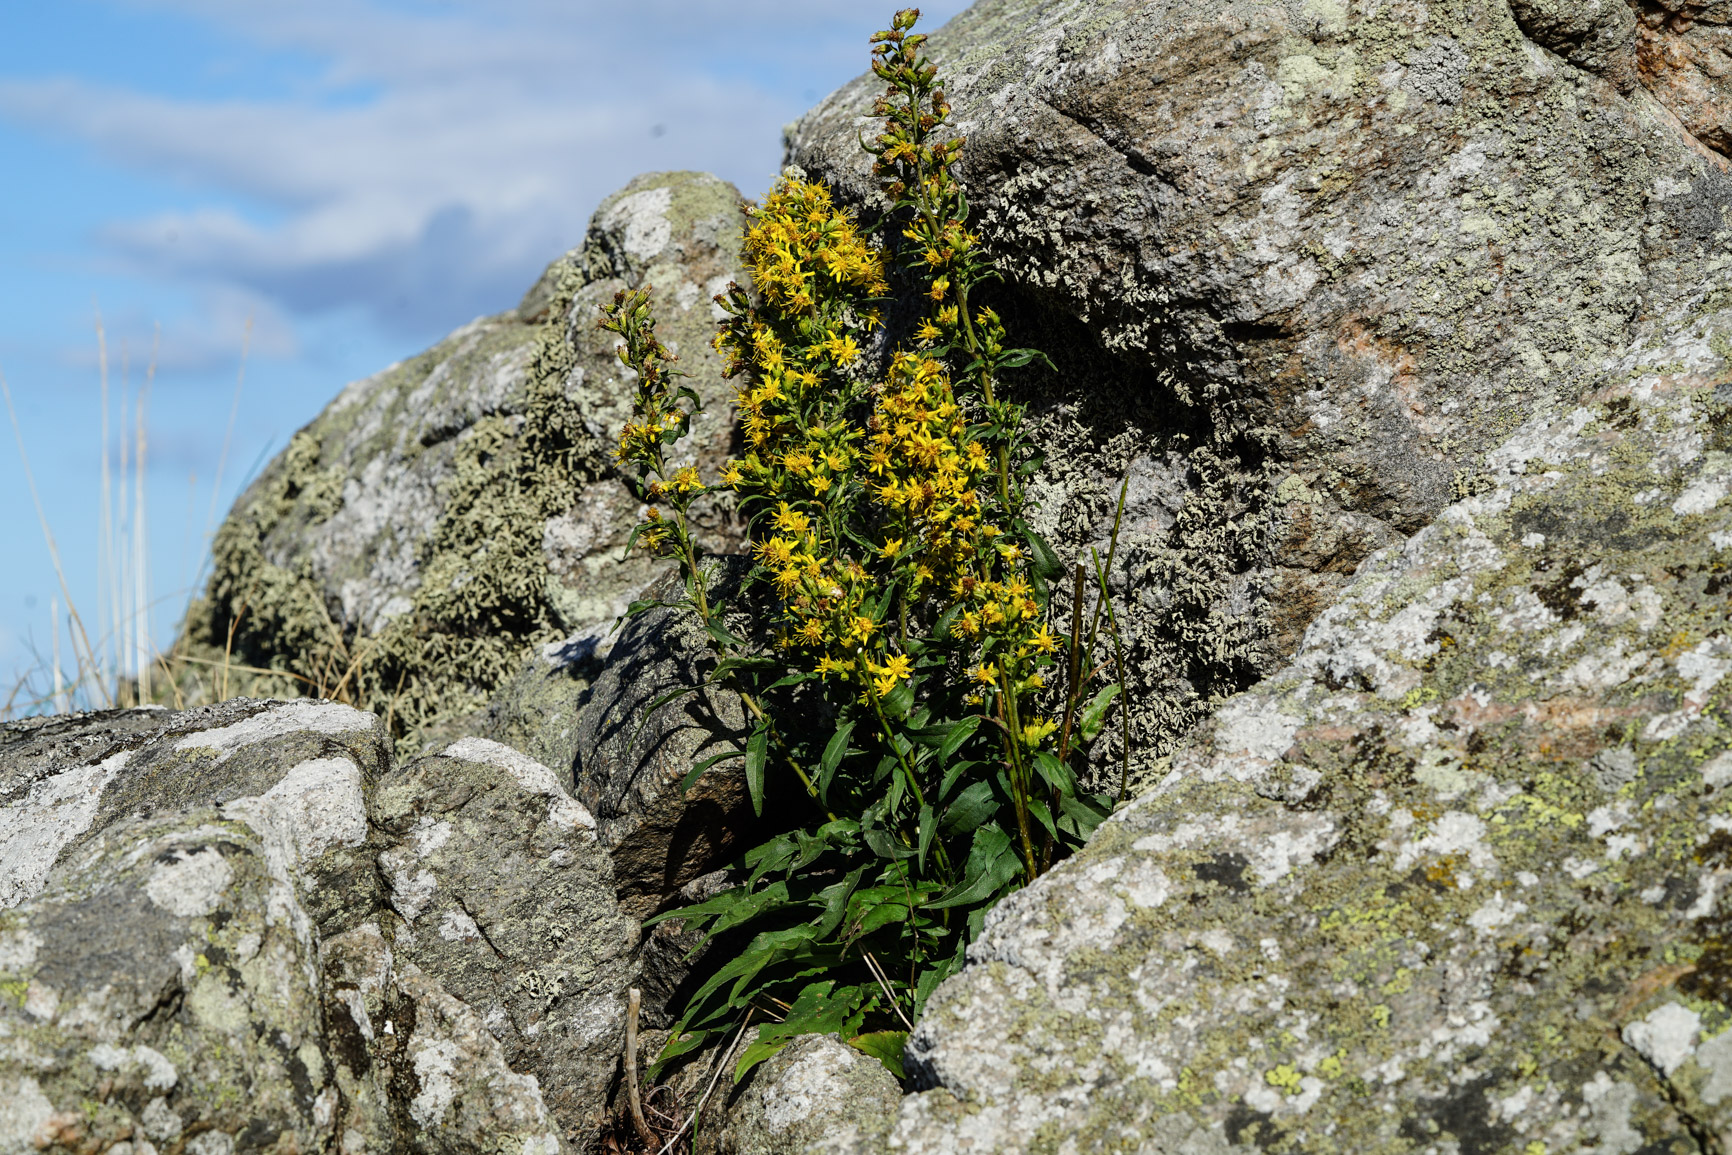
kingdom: Plantae
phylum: Tracheophyta
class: Magnoliopsida
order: Asterales
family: Asteraceae
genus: Solidago
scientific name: Solidago virgaurea
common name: Goldenrod
